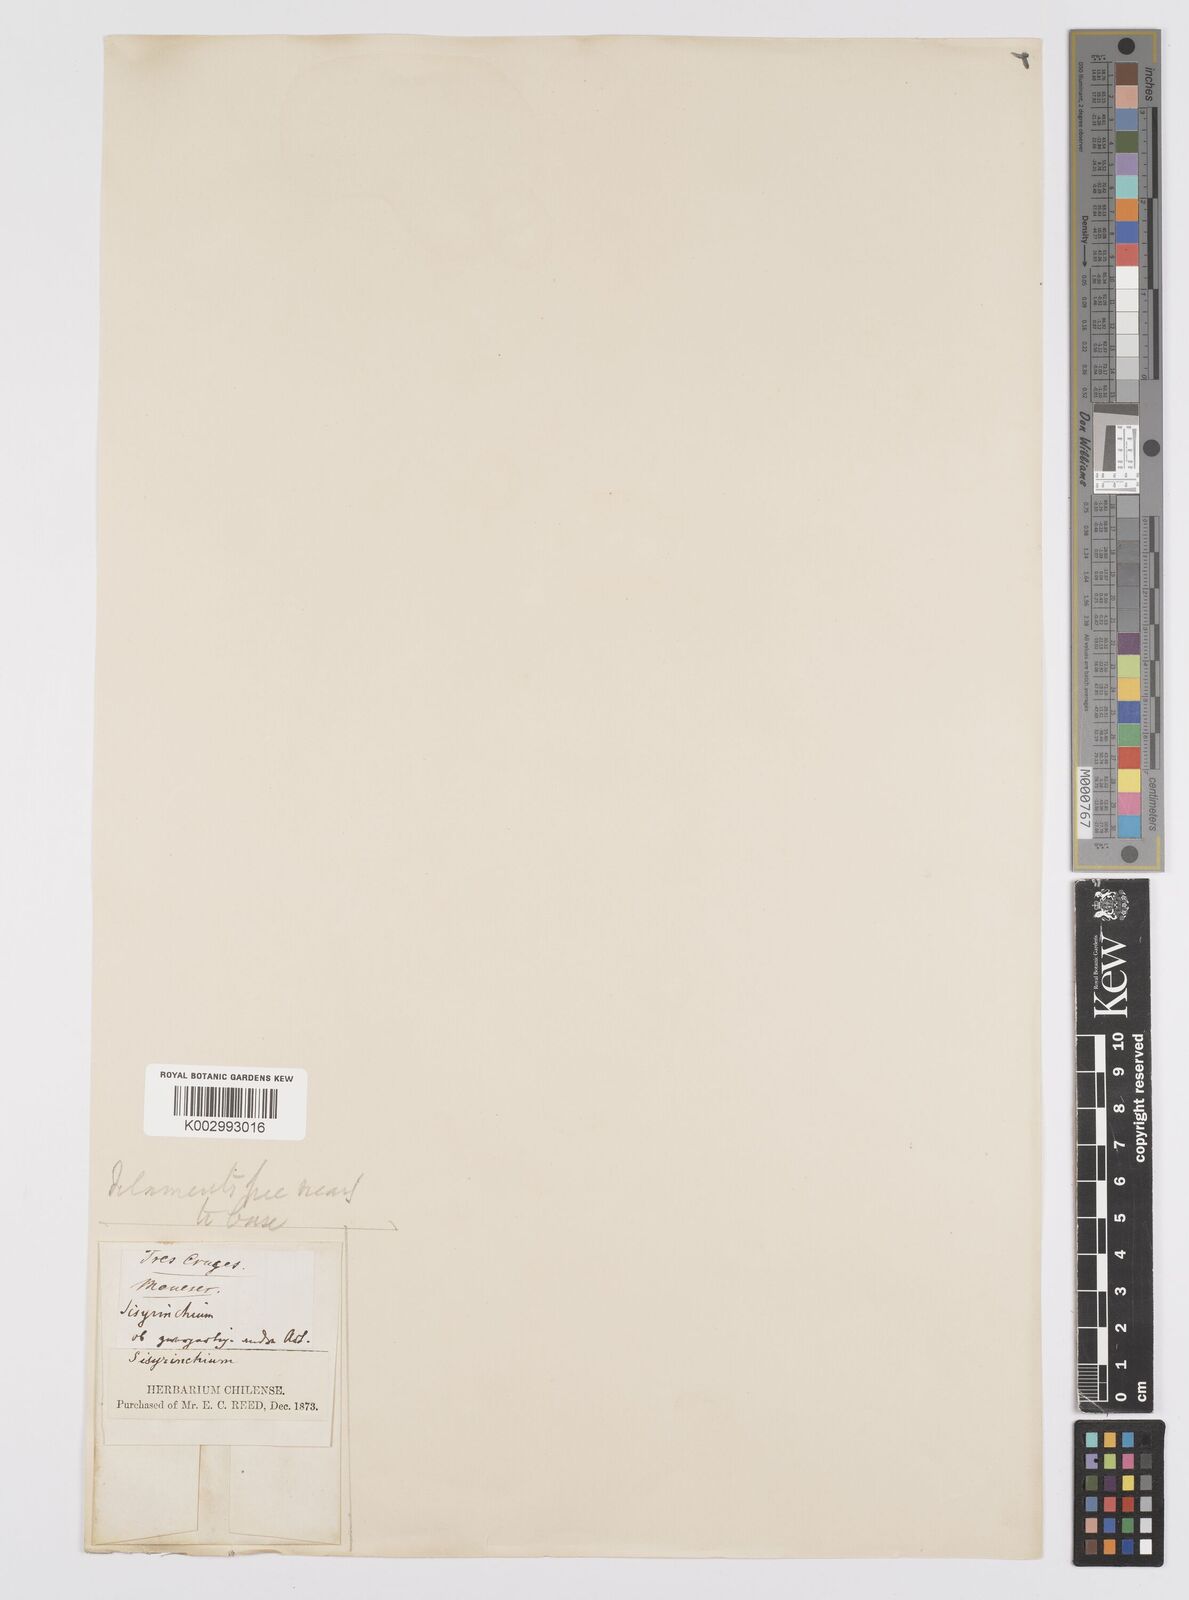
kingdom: Plantae
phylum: Tracheophyta
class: Liliopsida
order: Asparagales
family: Iridaceae
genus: Sisyrinchium
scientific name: Sisyrinchium
